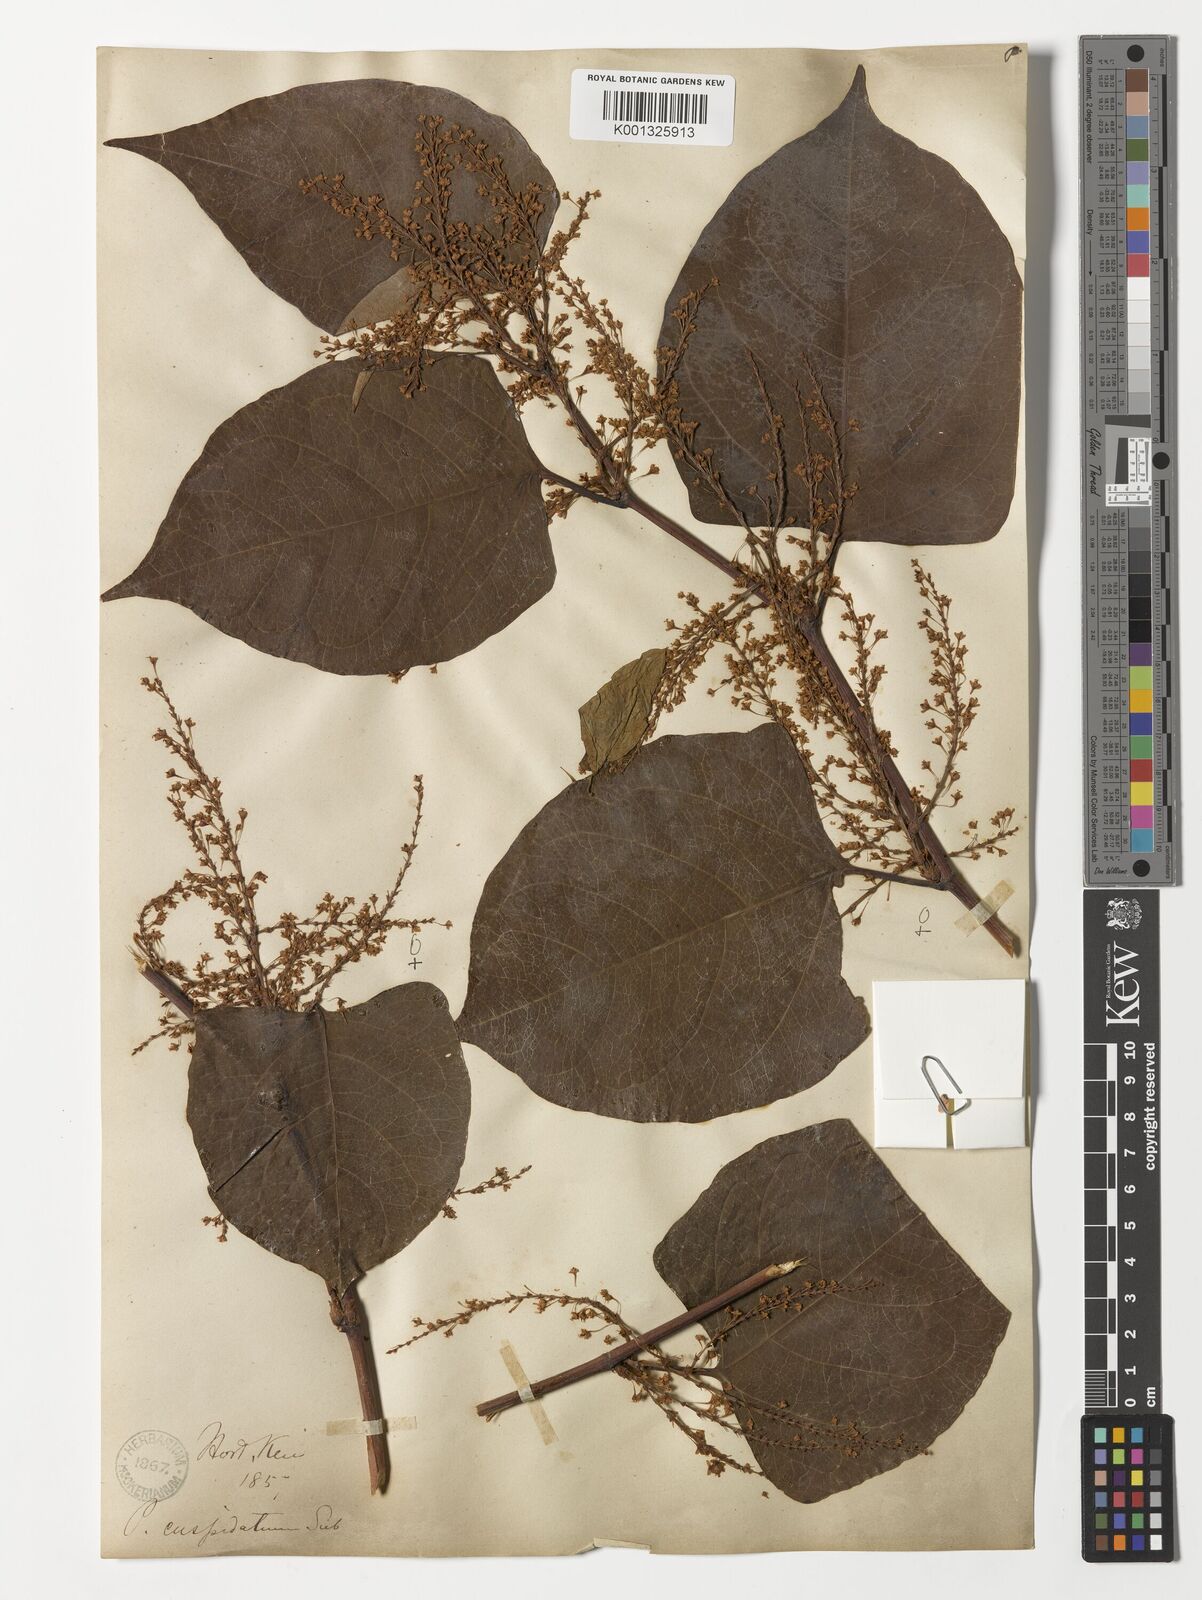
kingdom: Plantae
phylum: Tracheophyta
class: Magnoliopsida
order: Caryophyllales
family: Polygonaceae
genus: Reynoutria
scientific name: Reynoutria japonica
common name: Japanese knotweed
